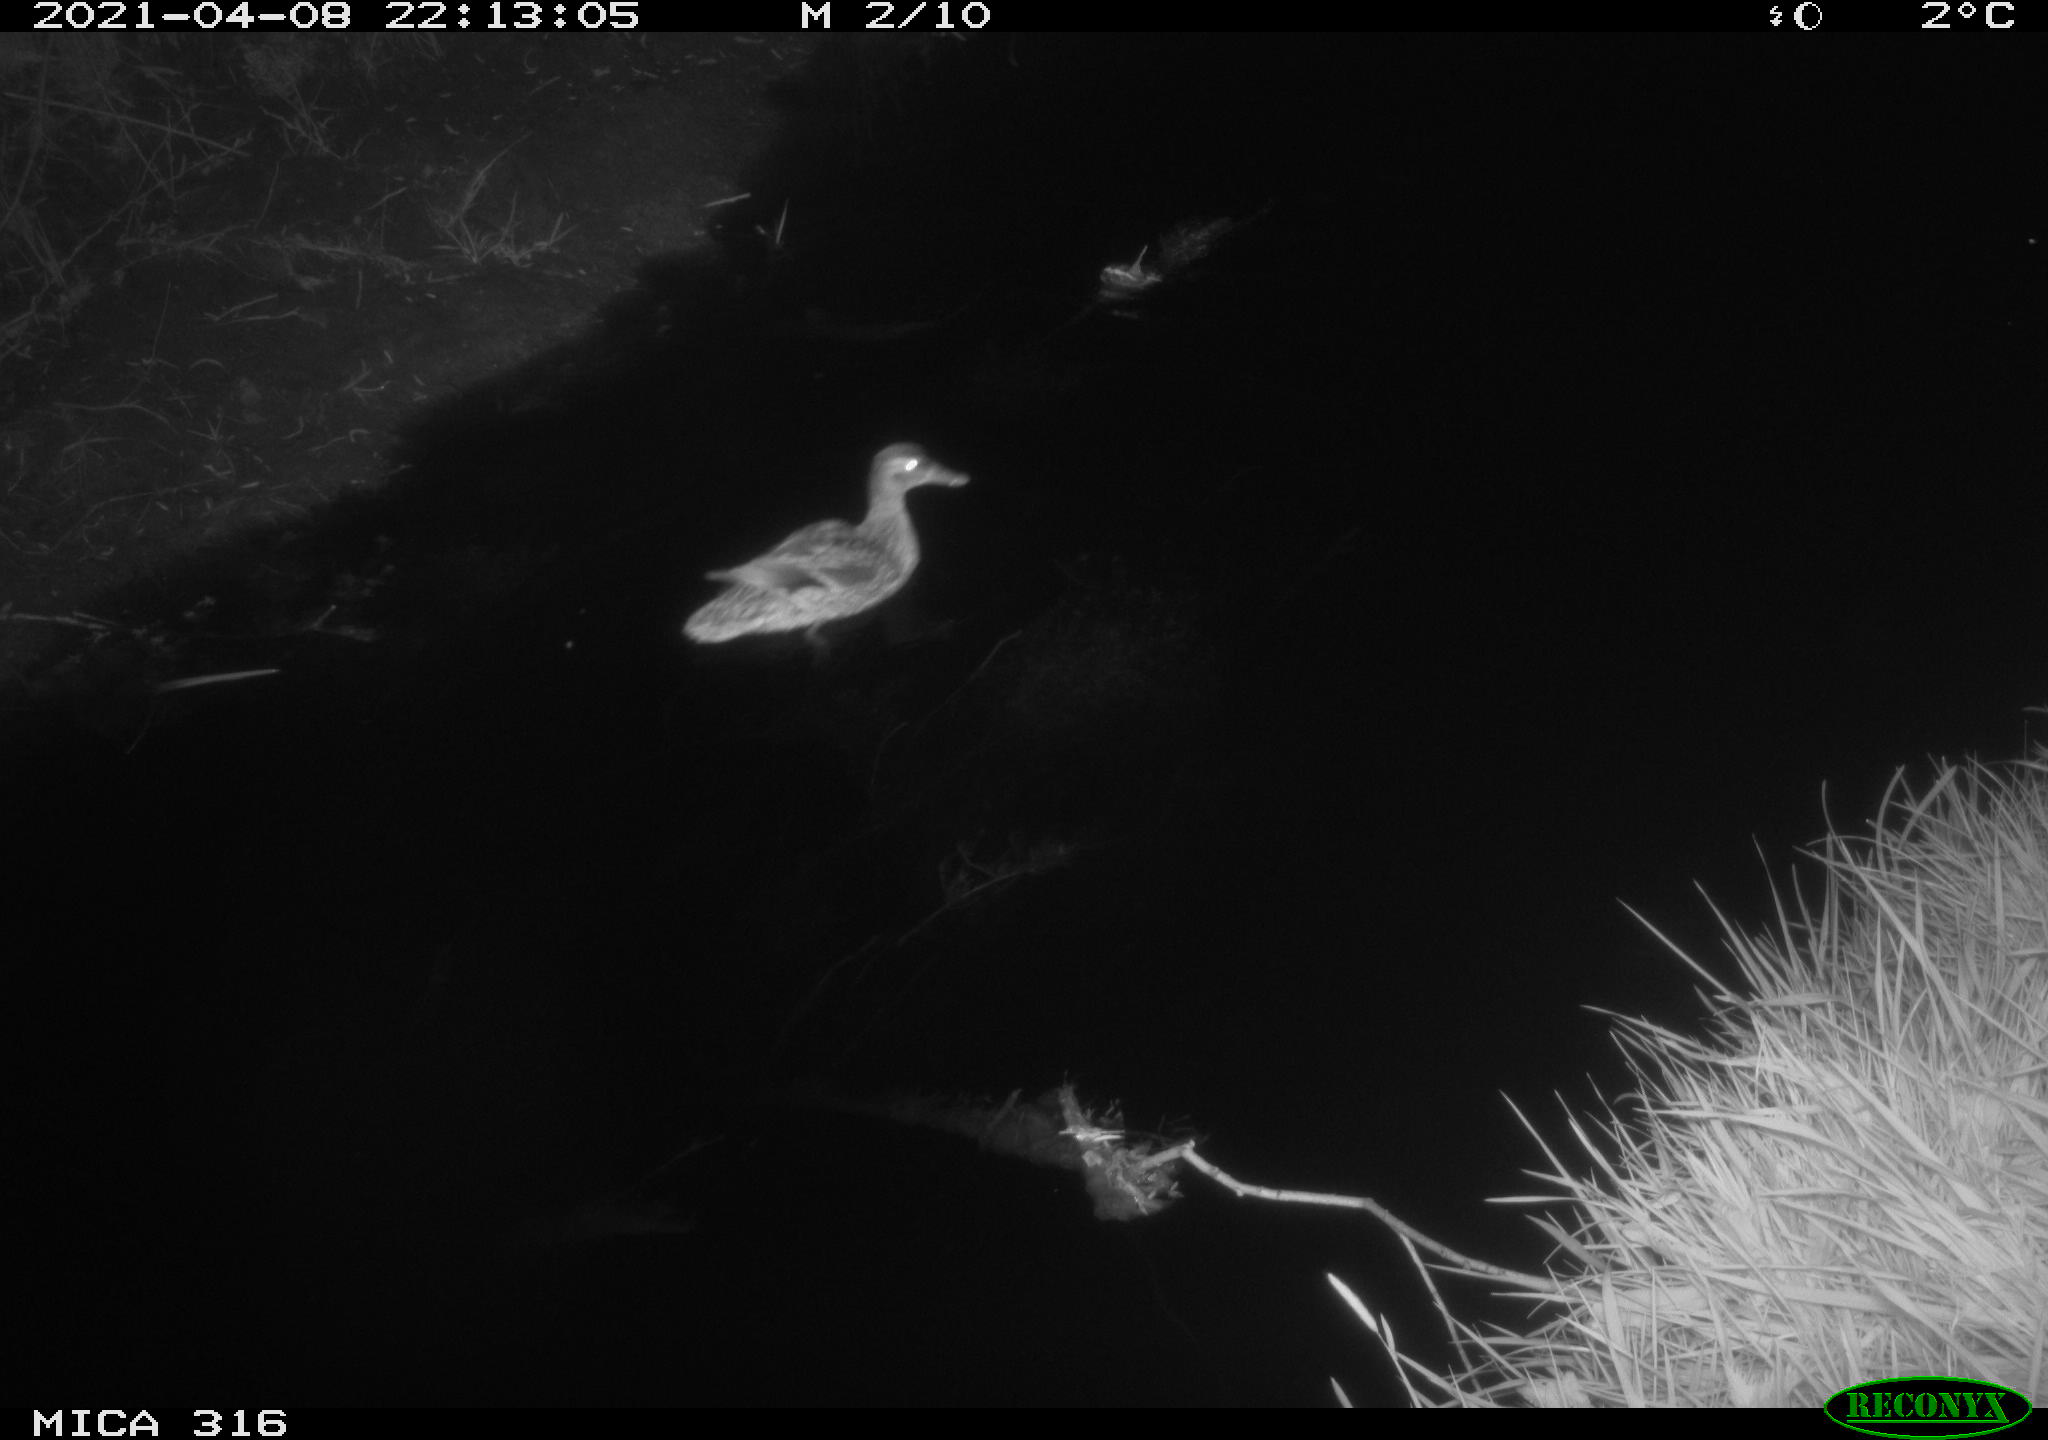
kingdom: Animalia
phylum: Chordata
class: Aves
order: Anseriformes
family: Anatidae
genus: Anas
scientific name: Anas platyrhynchos
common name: Mallard
